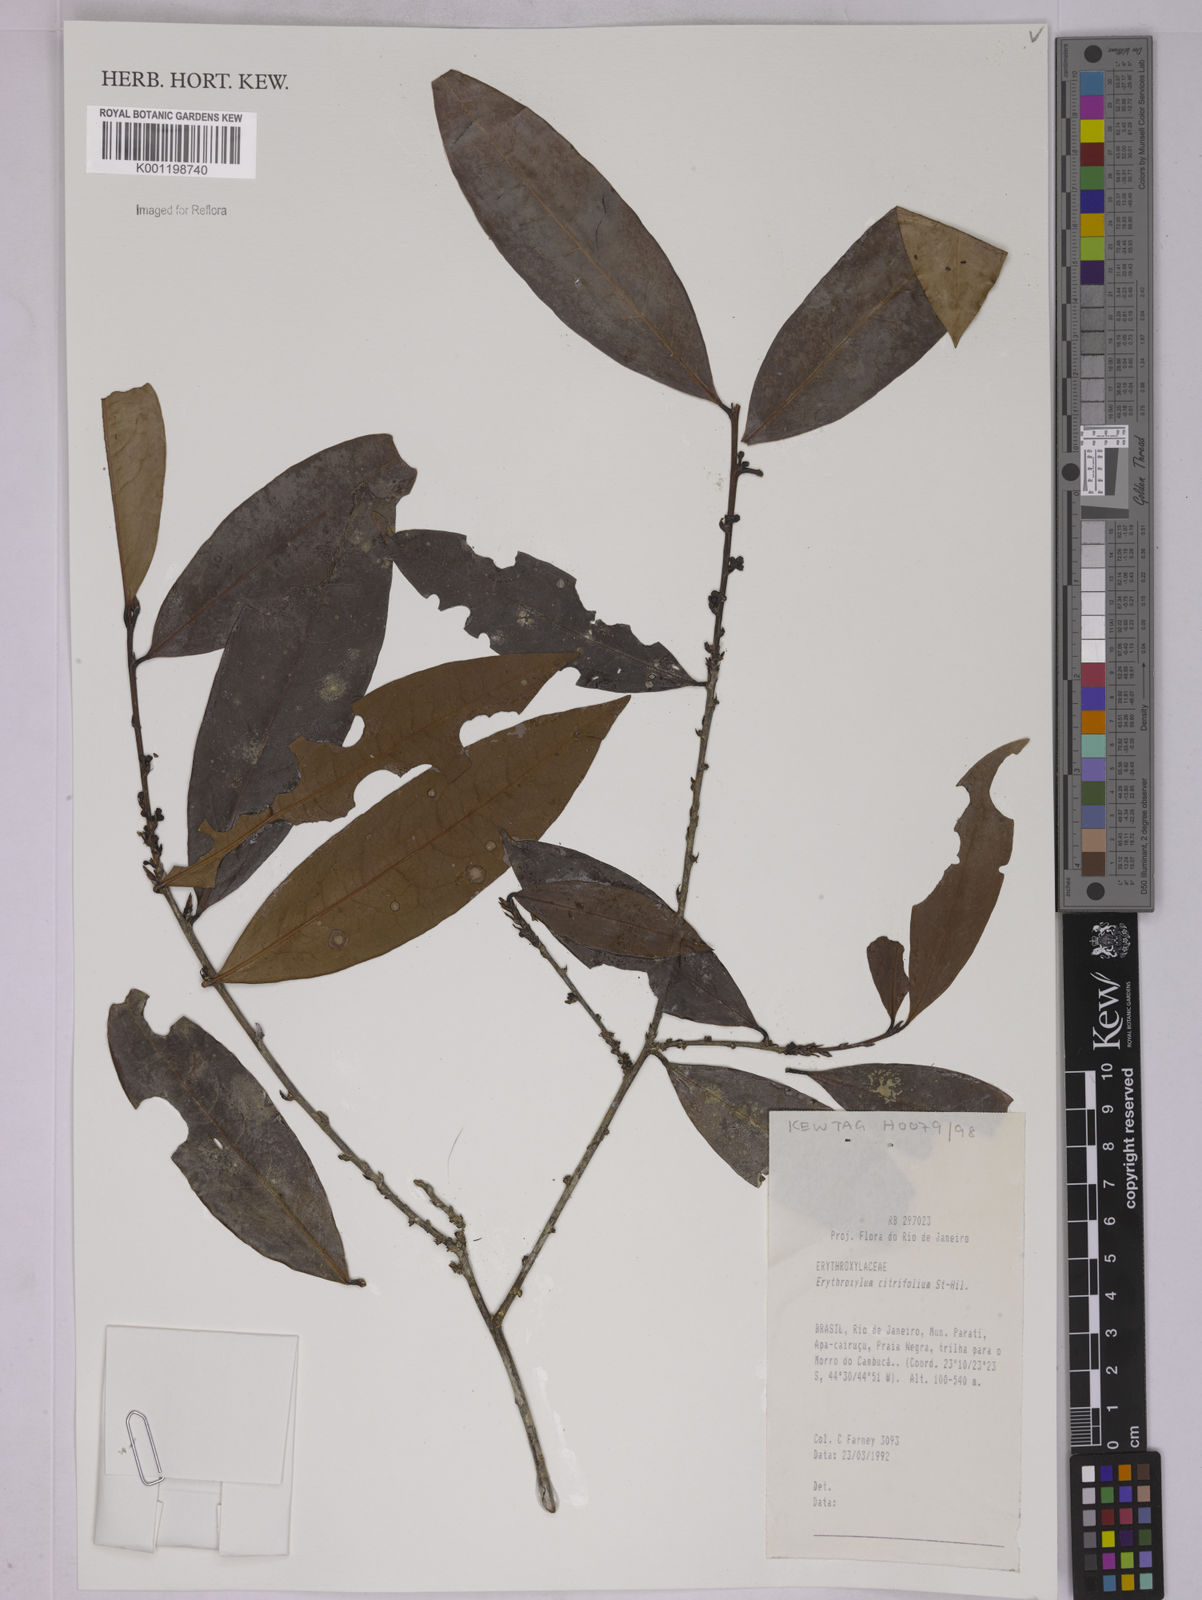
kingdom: Plantae
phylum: Tracheophyta
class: Magnoliopsida
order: Malpighiales
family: Erythroxylaceae
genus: Erythroxylum
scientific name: Erythroxylum citrifolium
